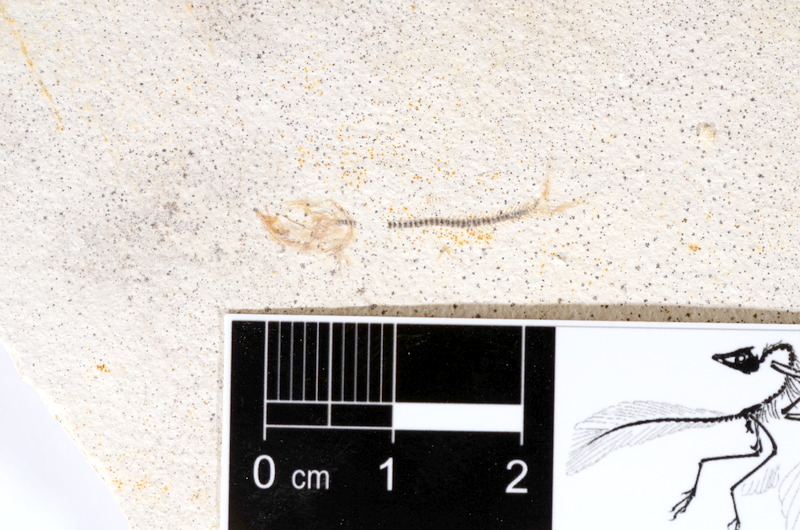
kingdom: Animalia
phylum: Chordata
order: Salmoniformes
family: Orthogonikleithridae
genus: Orthogonikleithrus
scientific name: Orthogonikleithrus hoelli
